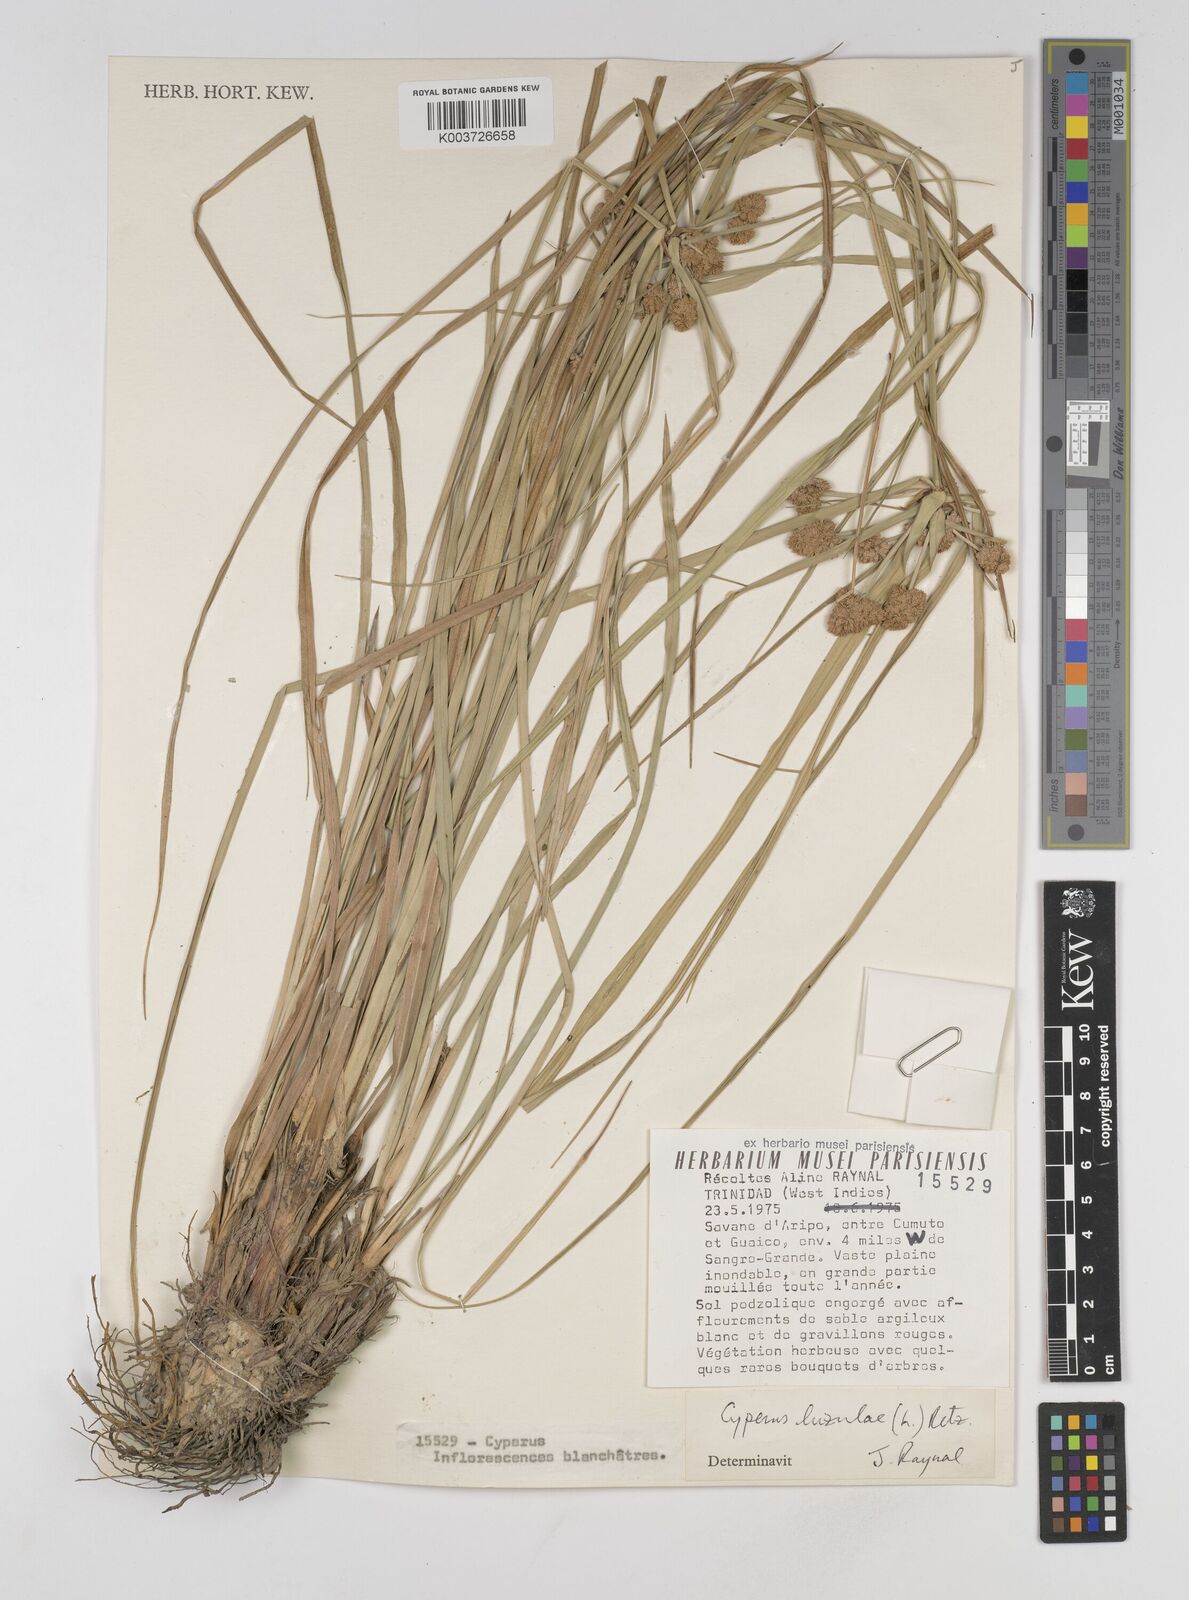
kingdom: Plantae
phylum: Tracheophyta
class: Liliopsida
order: Poales
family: Cyperaceae
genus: Cyperus
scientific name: Cyperus luzulae
